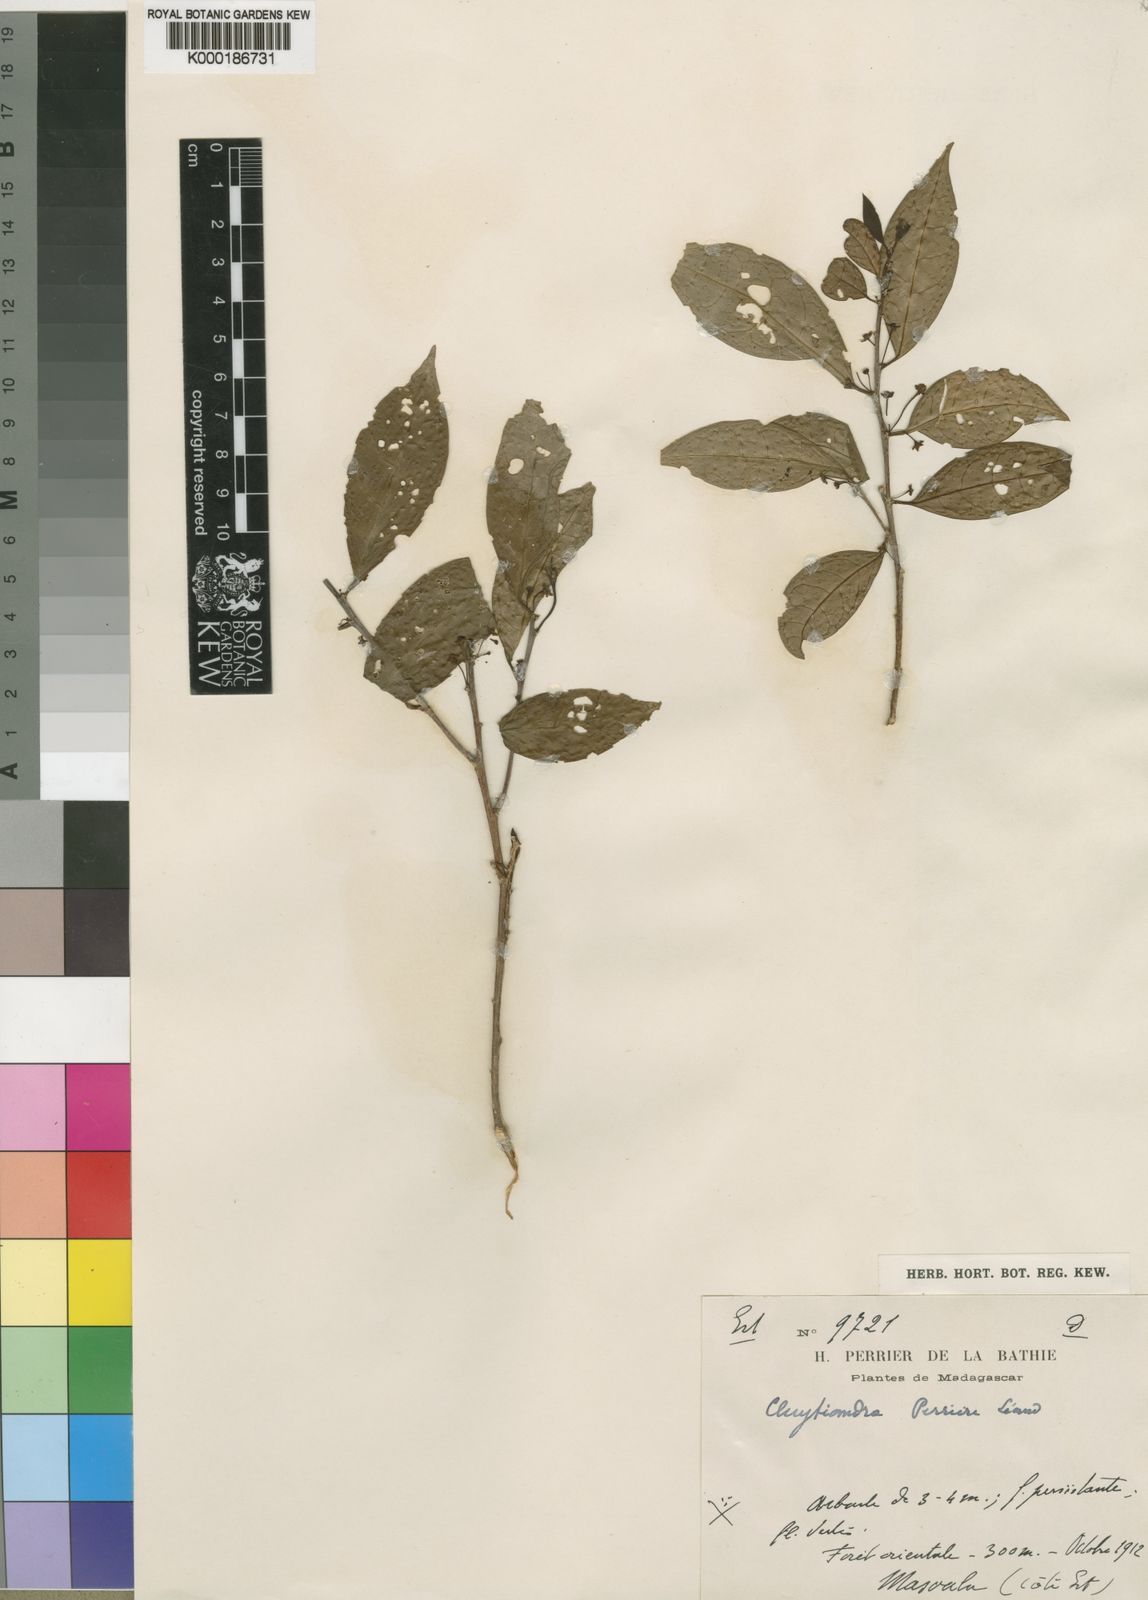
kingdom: Plantae
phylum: Tracheophyta
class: Magnoliopsida
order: Malpighiales
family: Phyllanthaceae
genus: Meineckia
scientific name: Meineckia
